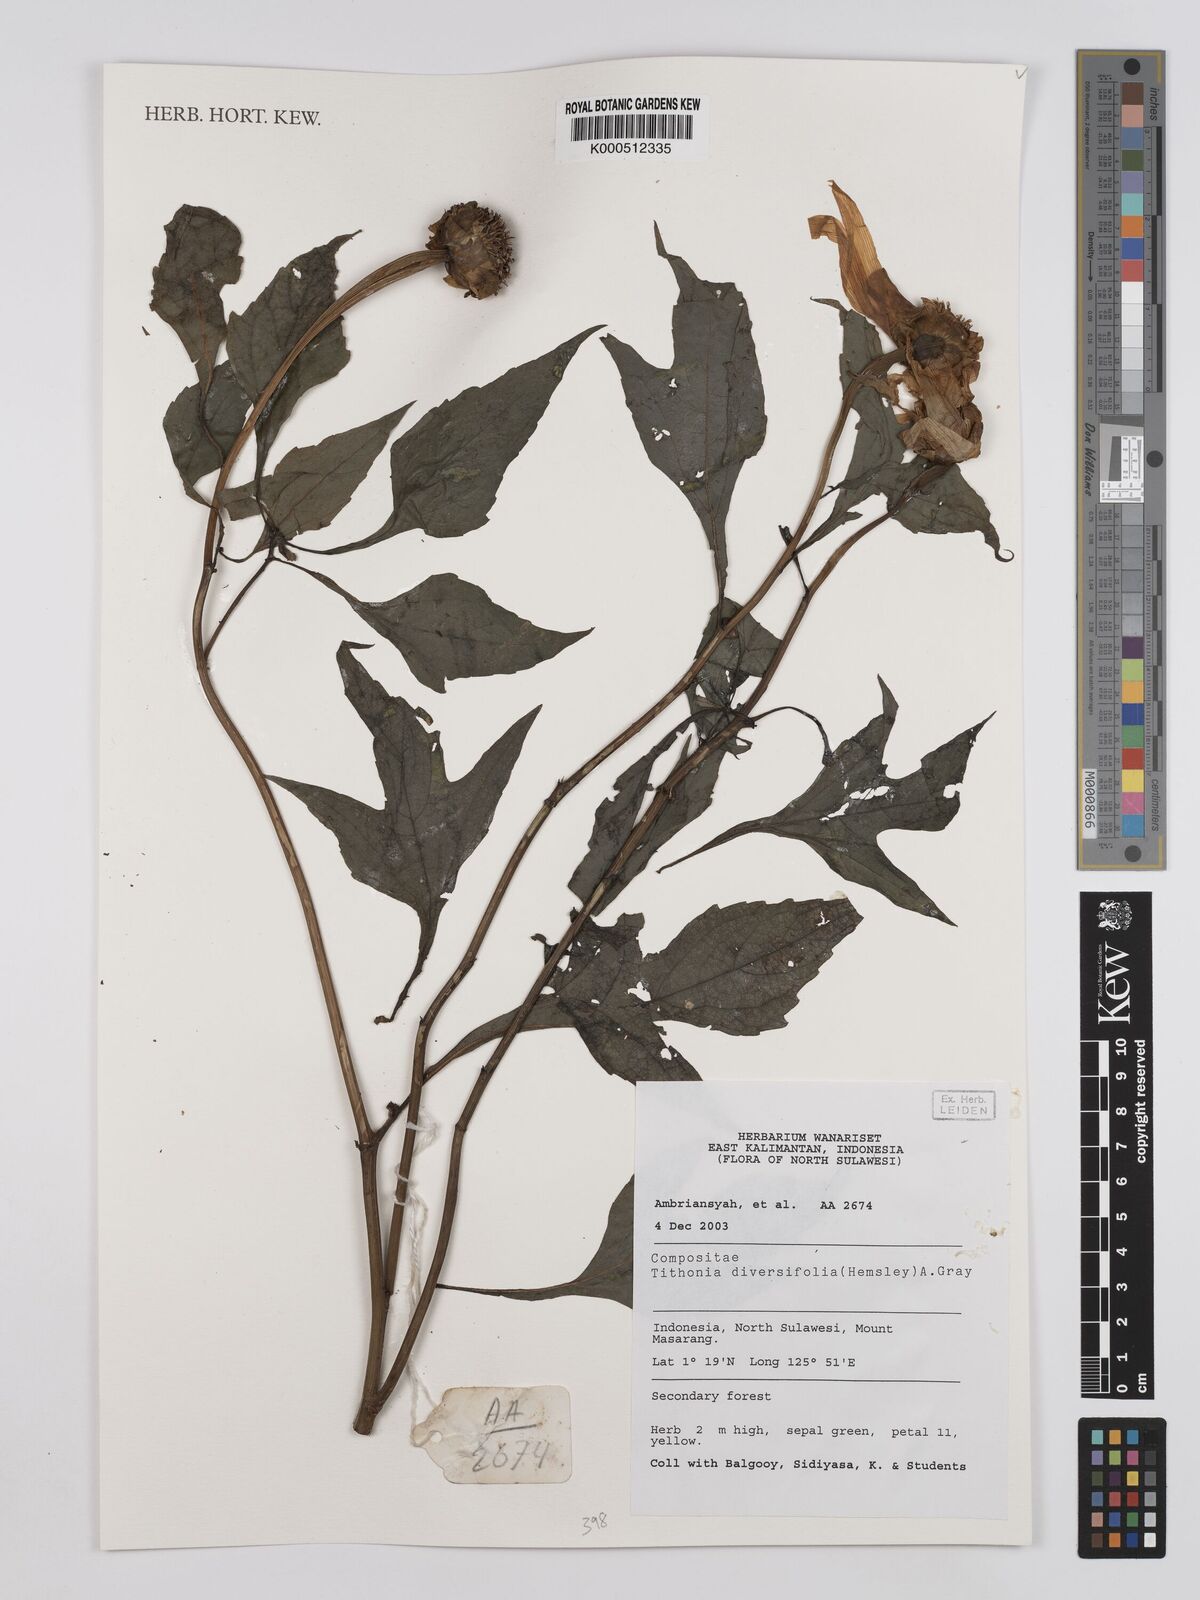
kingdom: Plantae
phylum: Tracheophyta
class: Magnoliopsida
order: Asterales
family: Asteraceae
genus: Tithonia
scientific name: Tithonia diversifolia
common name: Tree marigold
